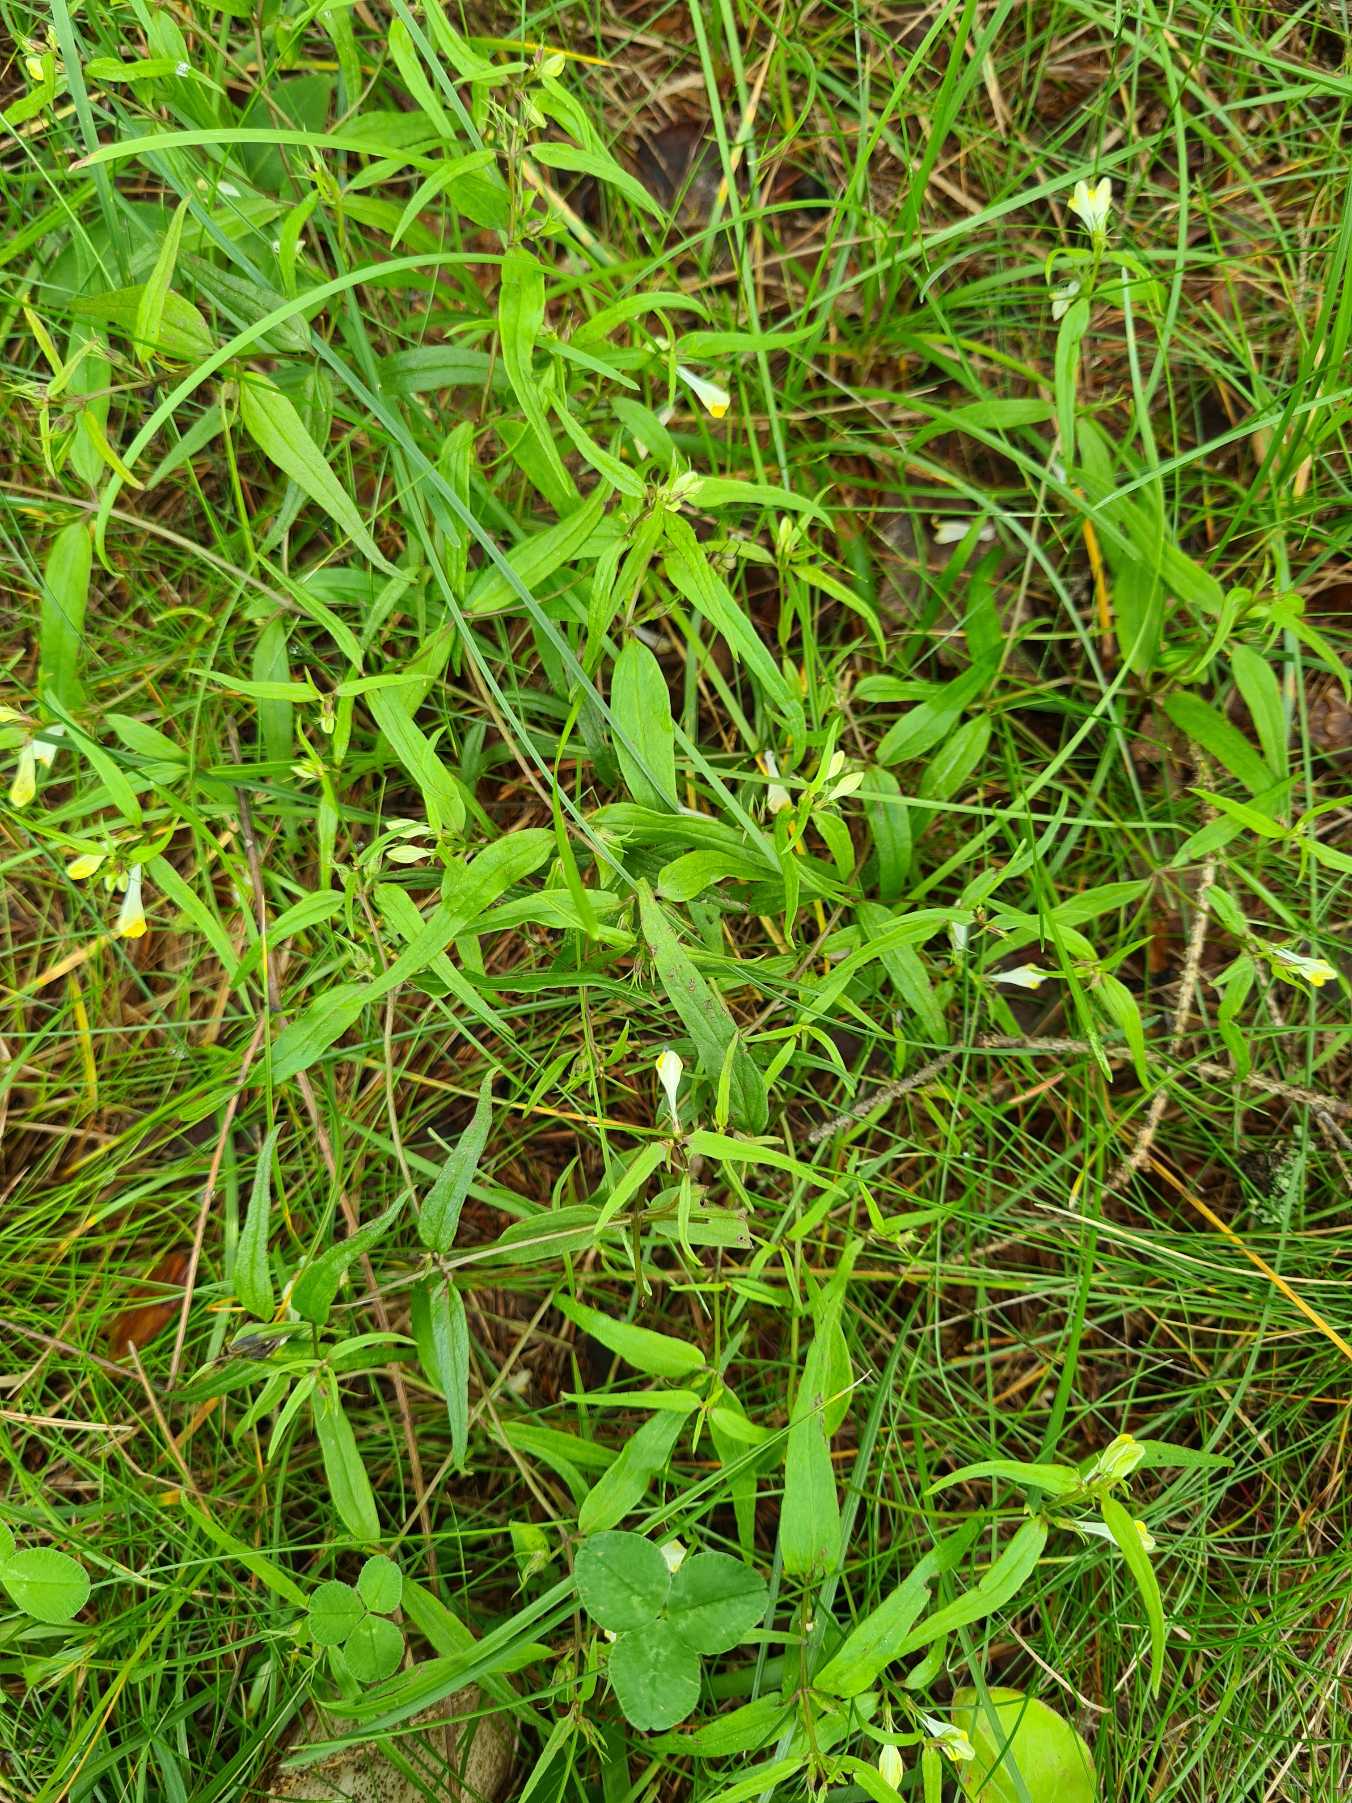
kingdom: Plantae
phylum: Tracheophyta
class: Magnoliopsida
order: Lamiales
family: Orobanchaceae
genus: Melampyrum
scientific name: Melampyrum pratense
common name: Almindelig kohvede
